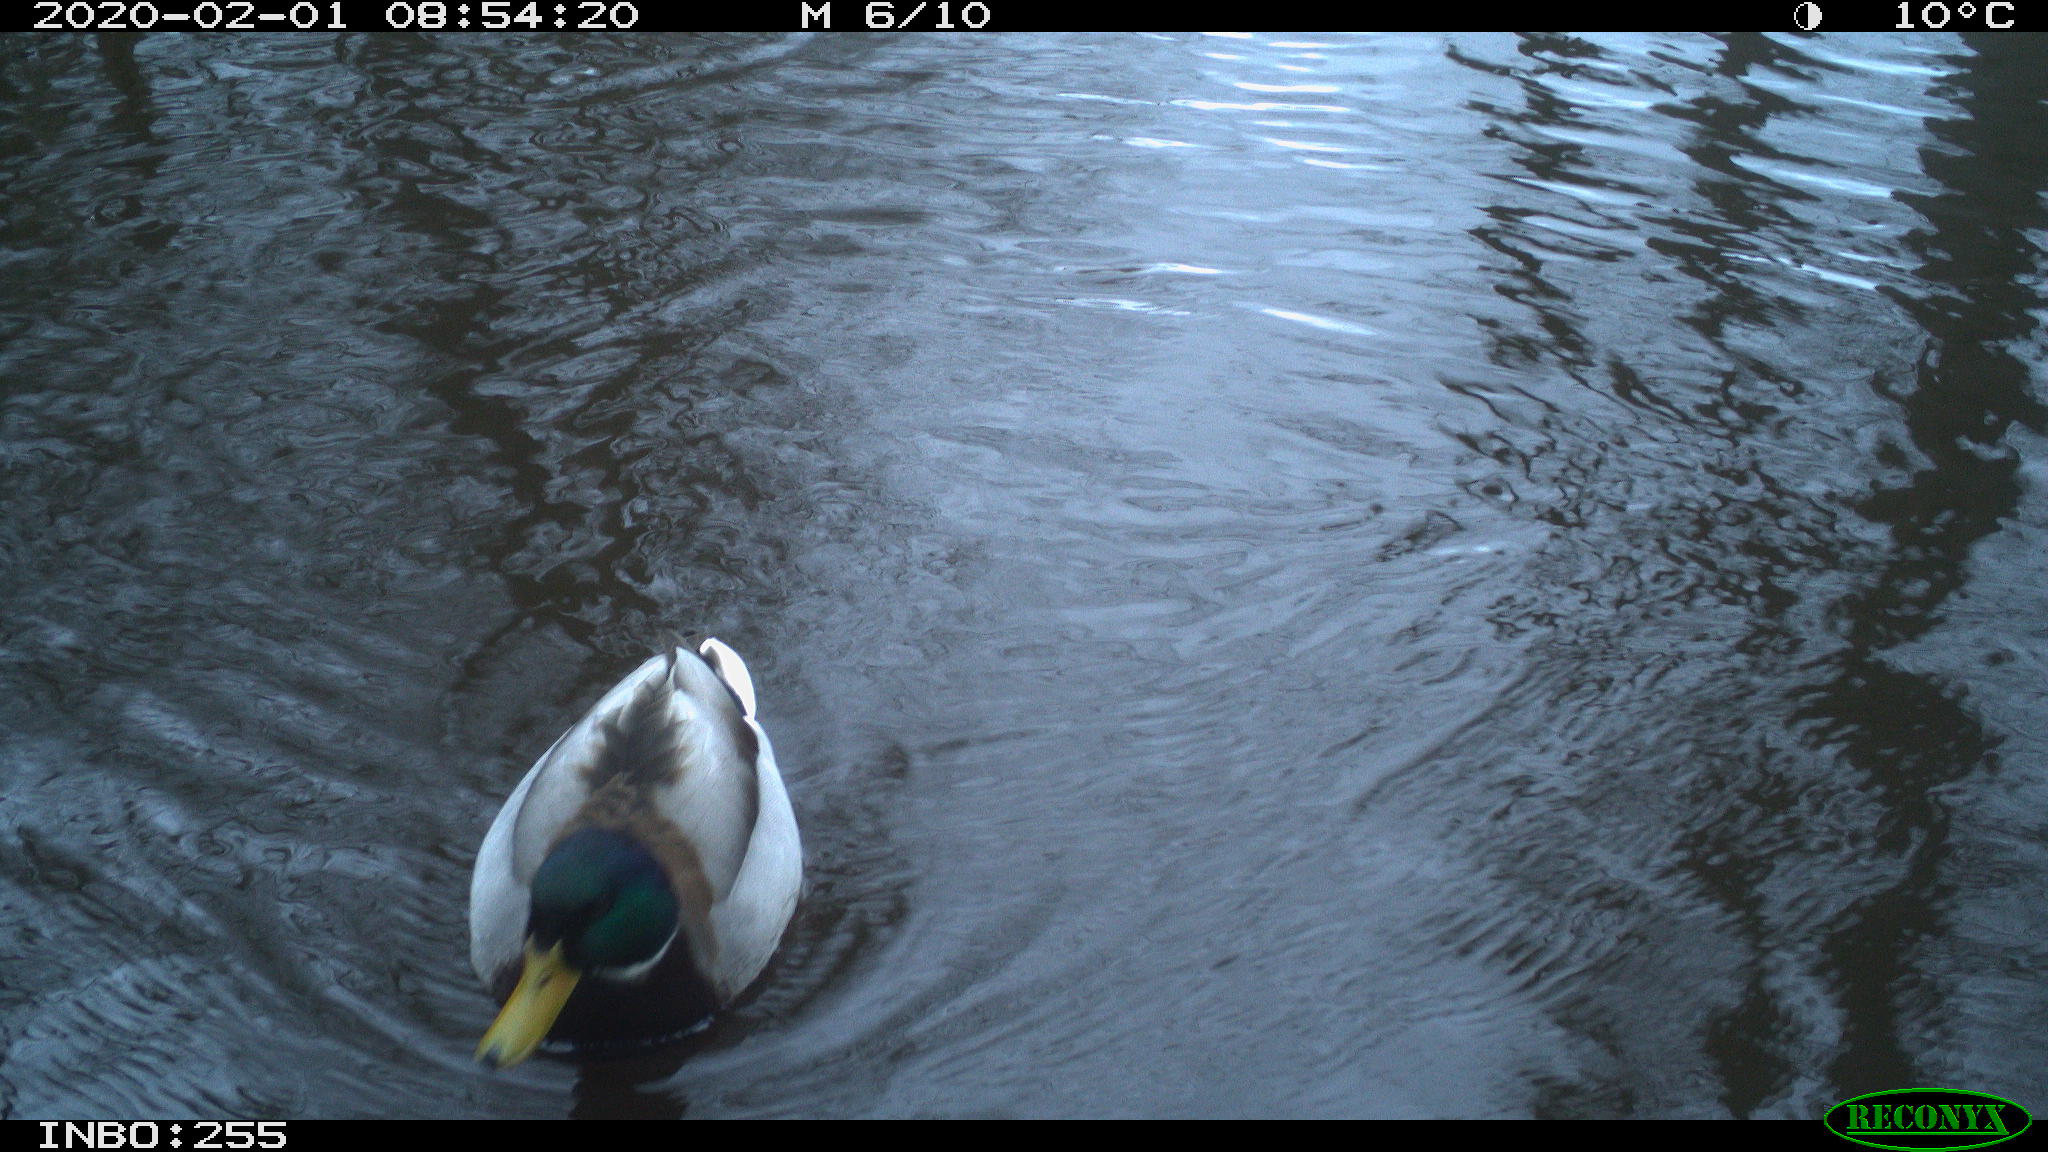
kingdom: Animalia
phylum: Chordata
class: Aves
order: Anseriformes
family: Anatidae
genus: Anas
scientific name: Anas platyrhynchos
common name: Mallard
